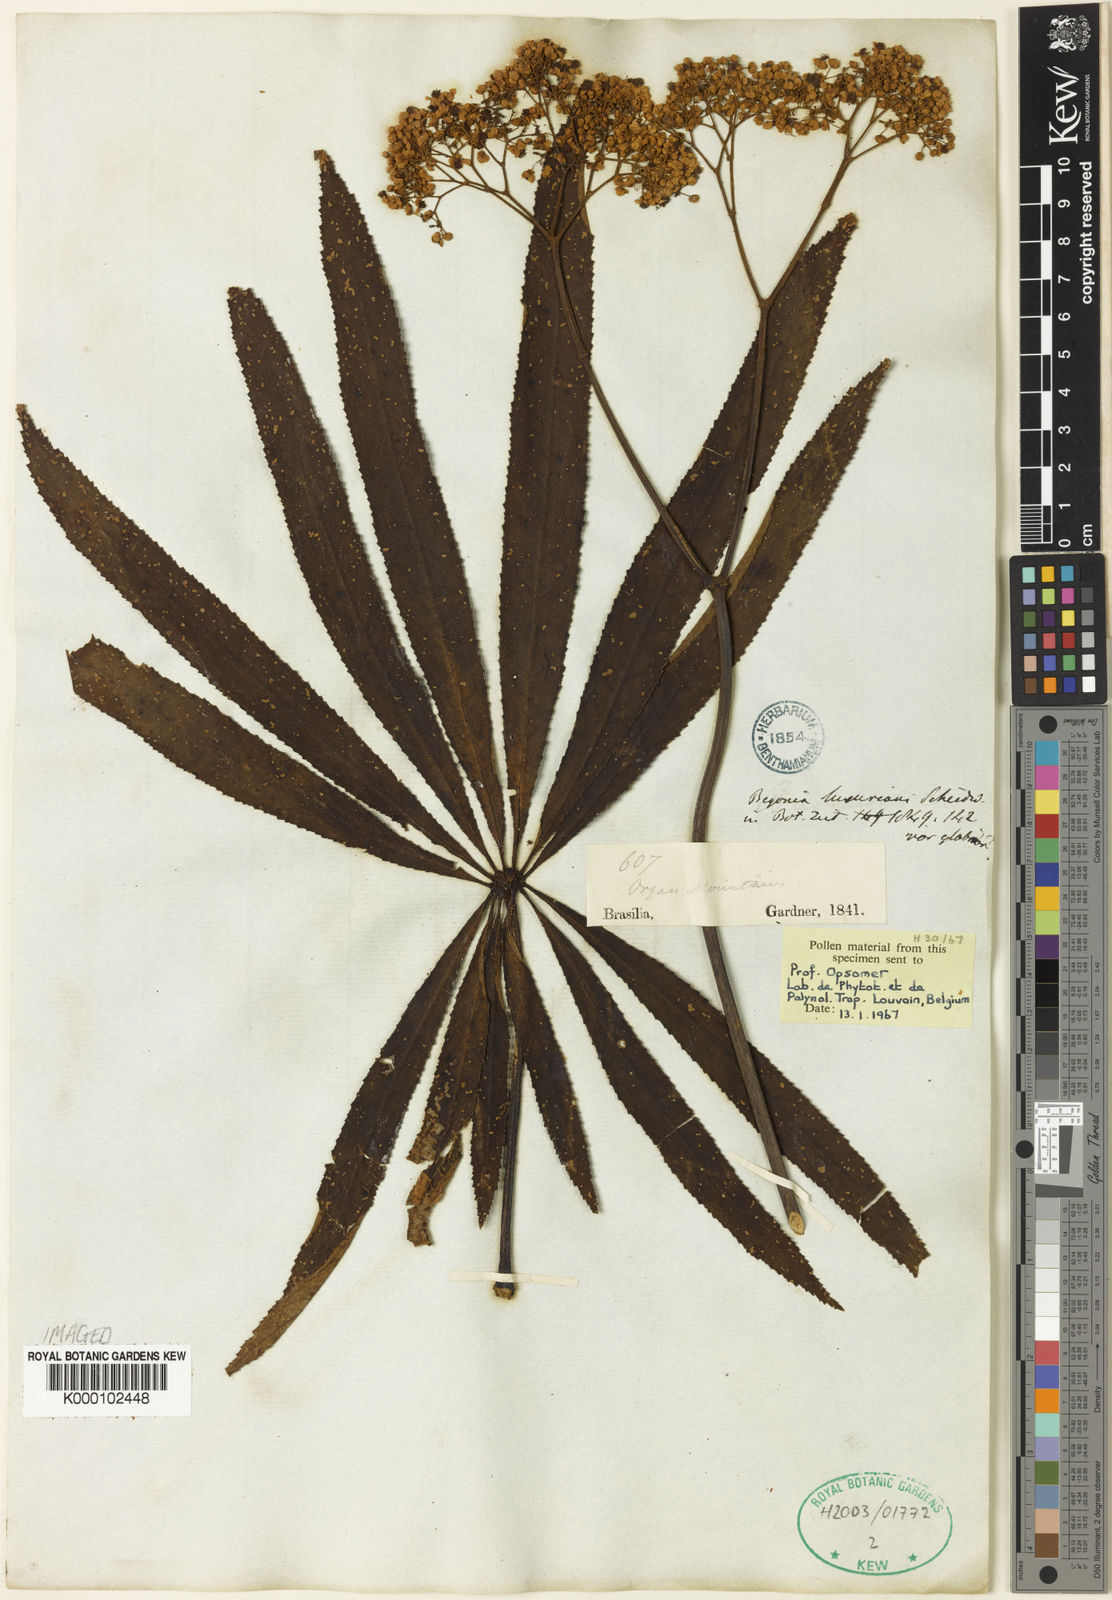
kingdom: Plantae
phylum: Tracheophyta
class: Magnoliopsida
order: Cucurbitales
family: Begoniaceae
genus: Begonia
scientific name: Begonia
